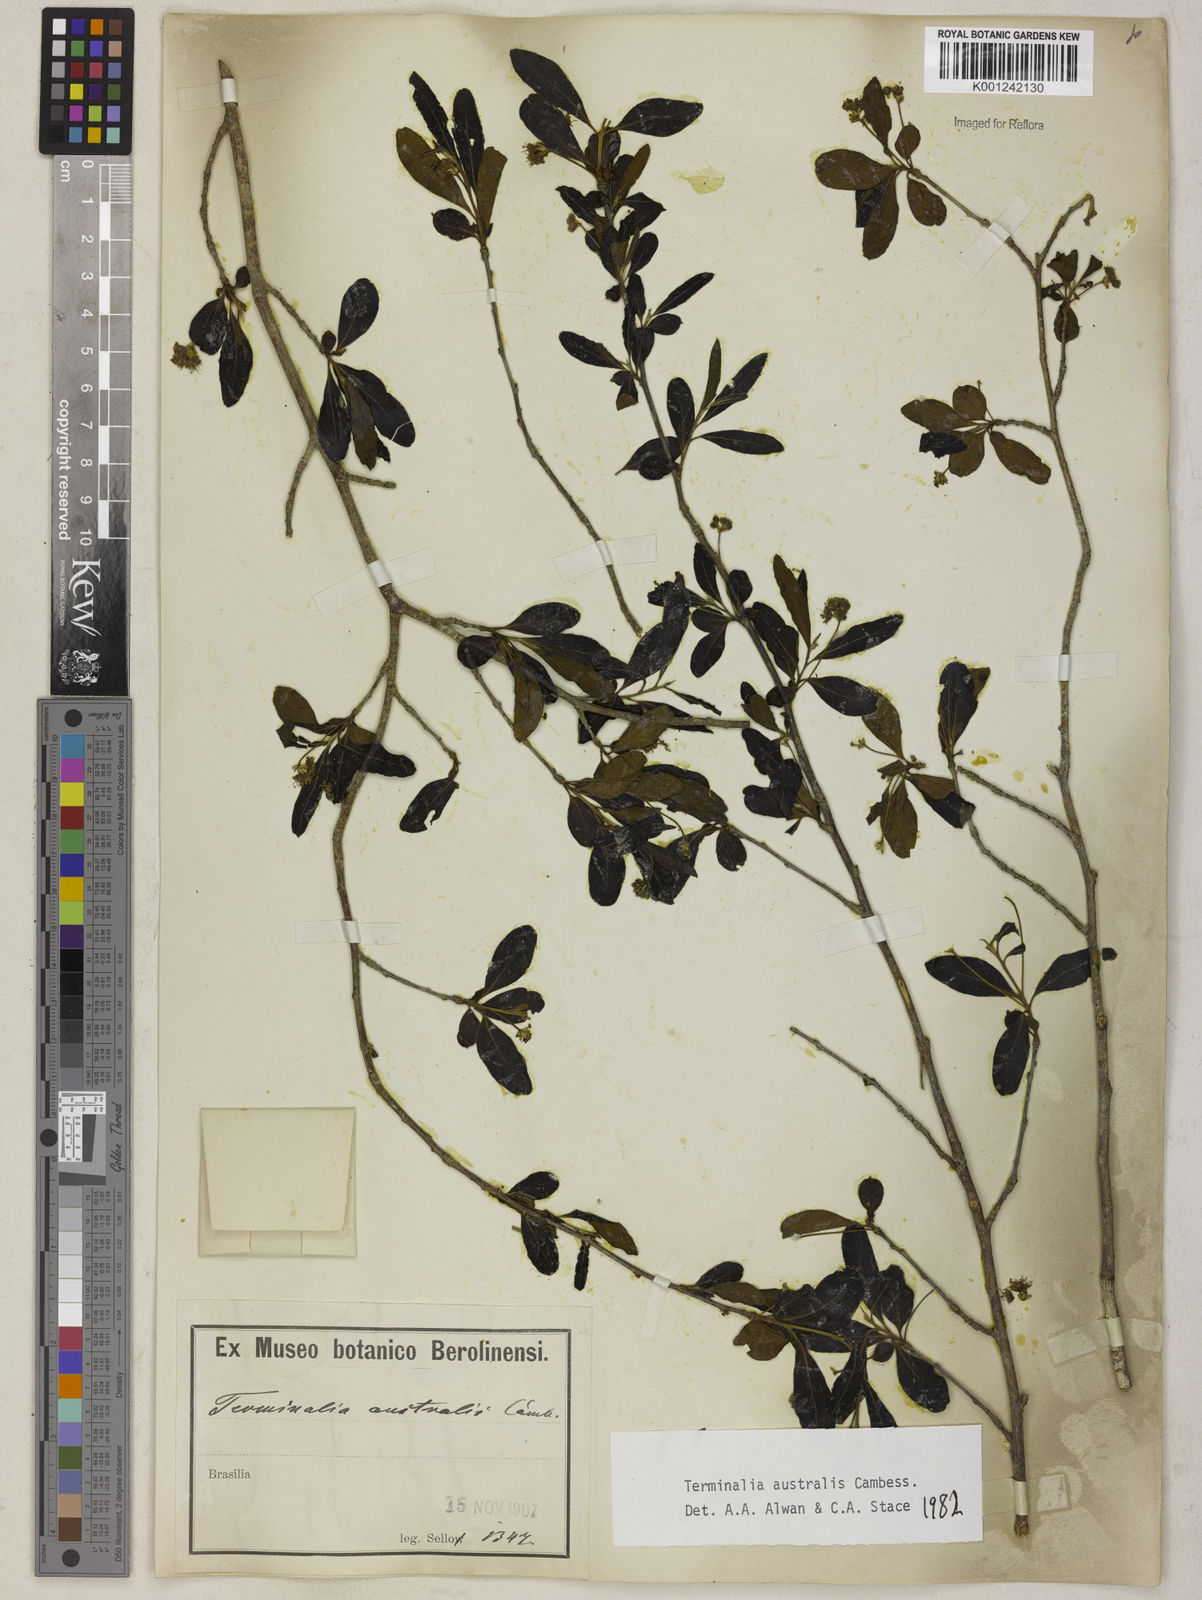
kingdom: Plantae
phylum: Tracheophyta
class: Magnoliopsida
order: Myrtales
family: Combretaceae
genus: Terminalia
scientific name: Terminalia australis
